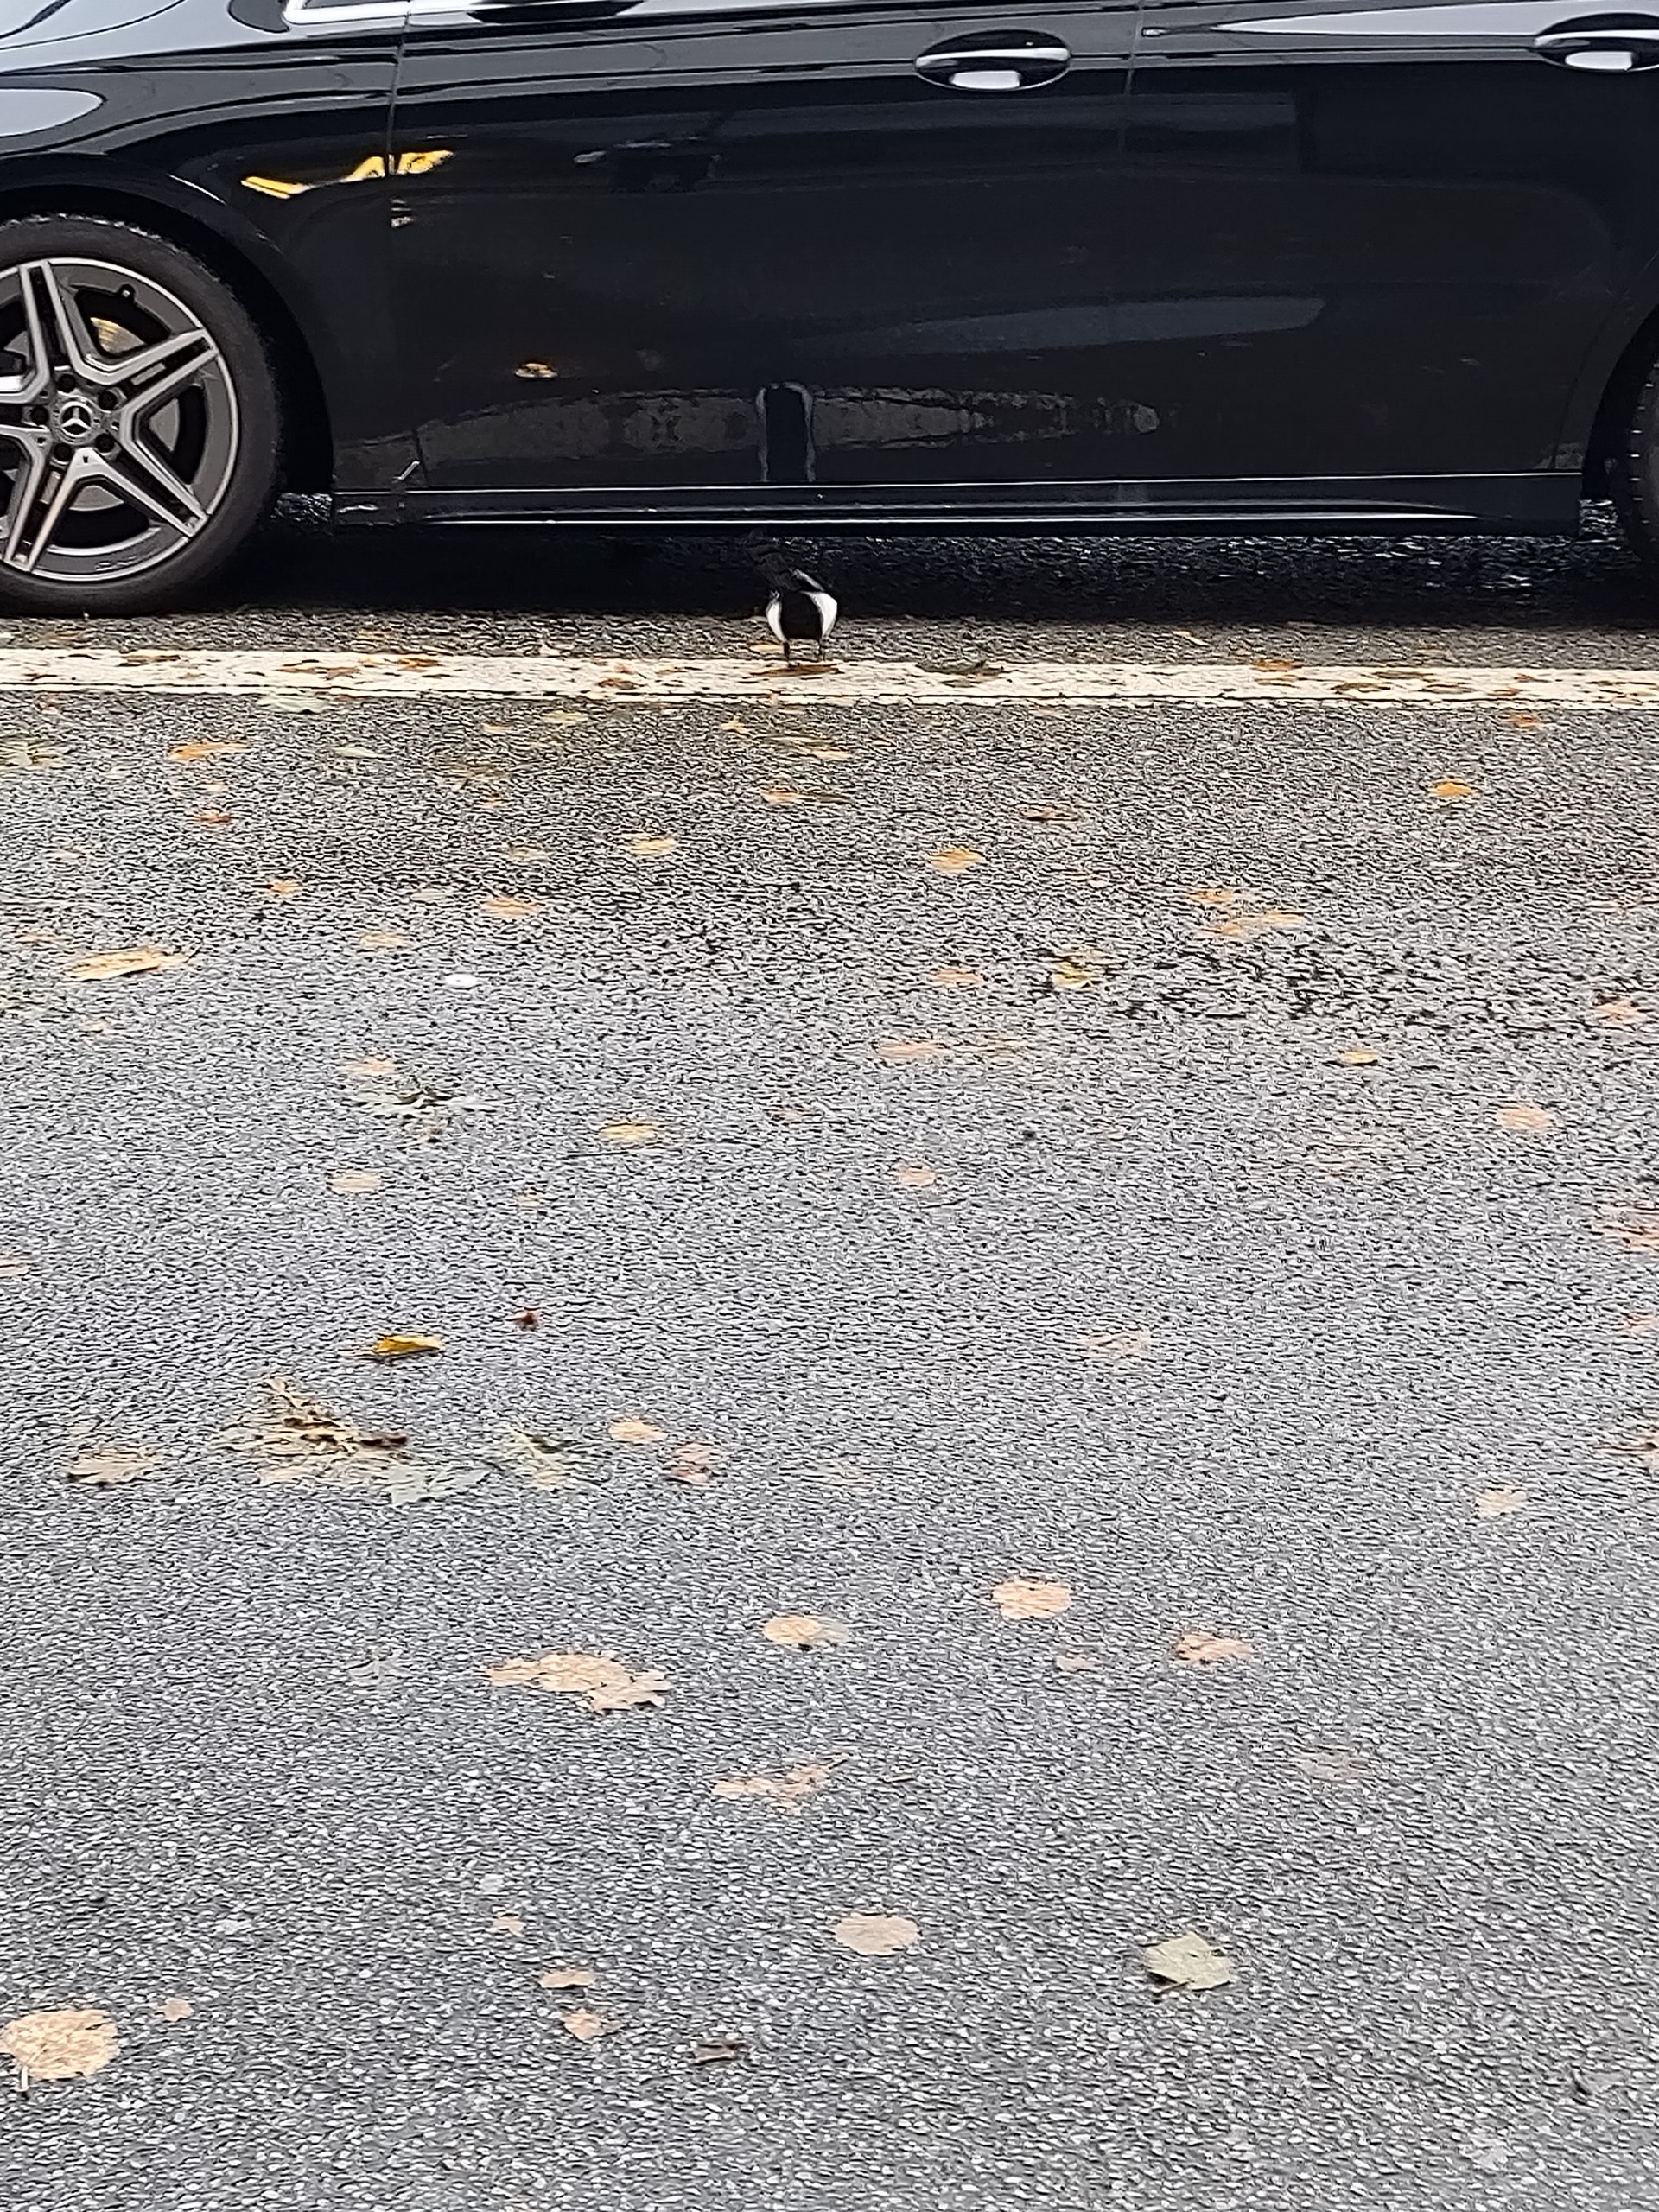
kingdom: Animalia
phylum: Chordata
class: Aves
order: Passeriformes
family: Corvidae
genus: Pica
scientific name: Pica pica
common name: Husskade
